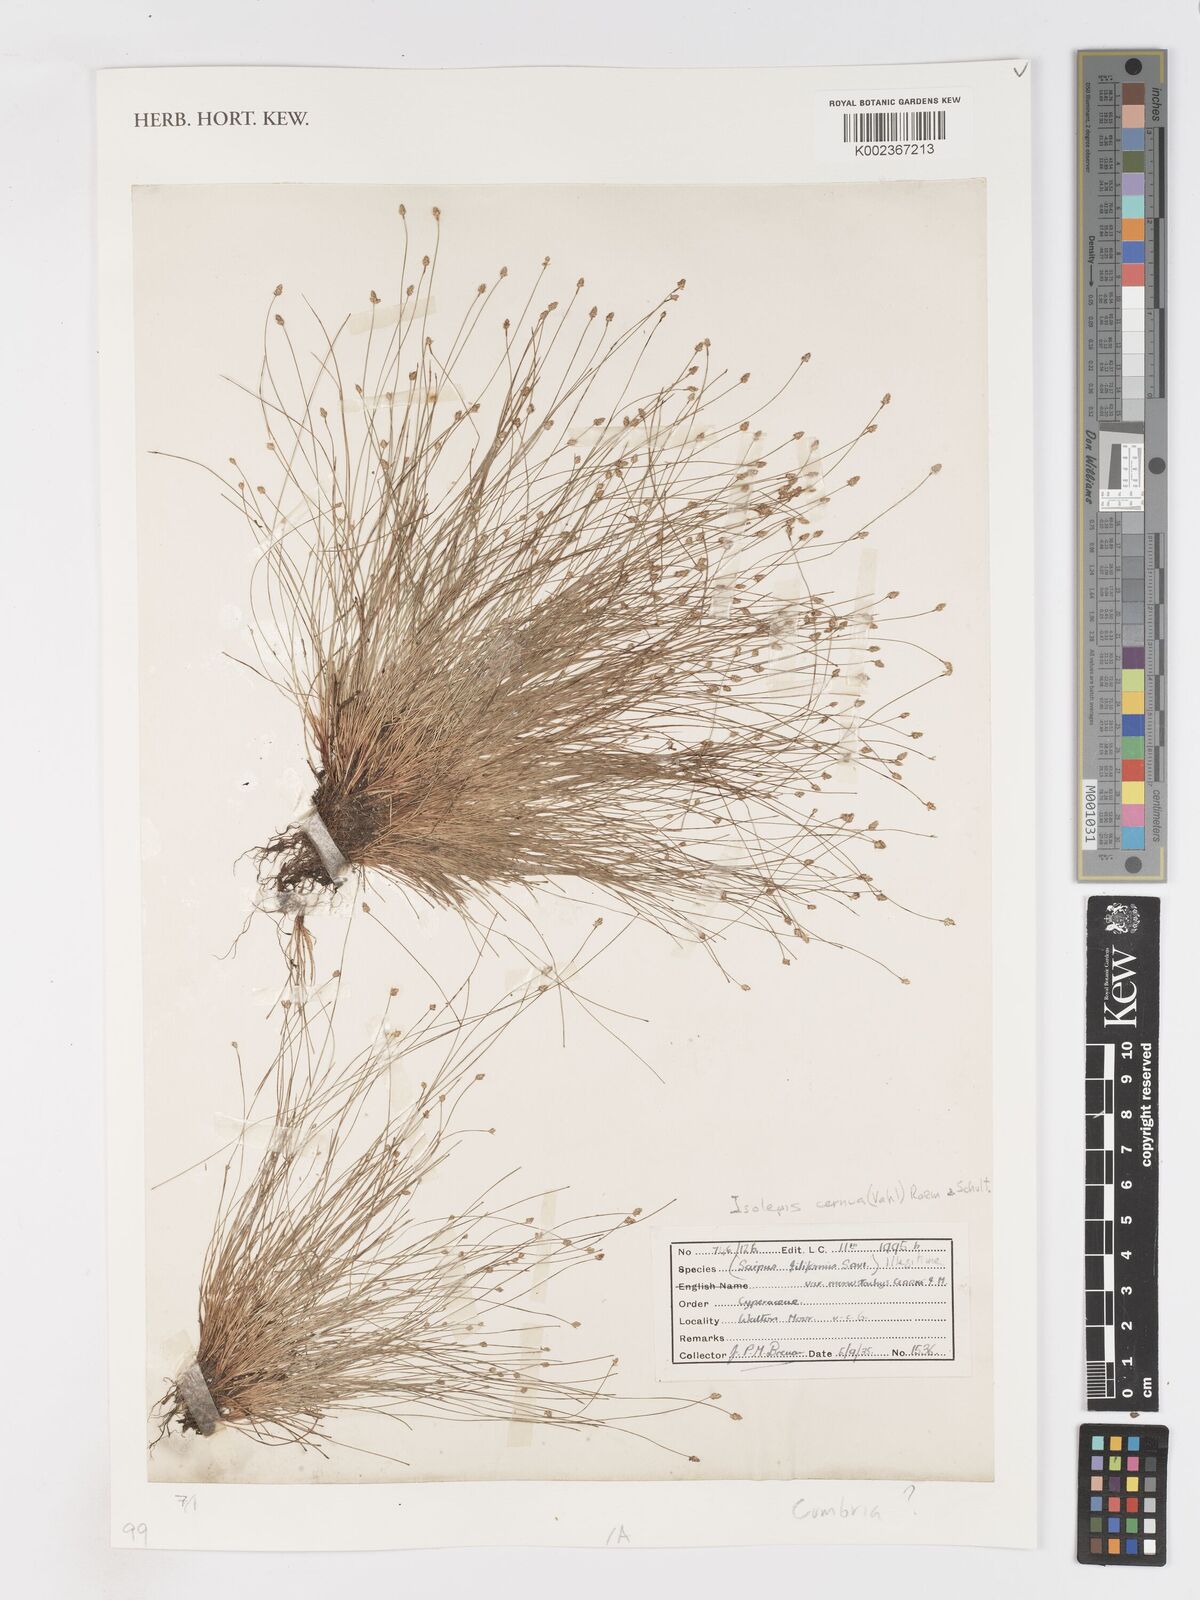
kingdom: Plantae
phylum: Tracheophyta
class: Liliopsida
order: Poales
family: Cyperaceae
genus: Isolepis
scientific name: Isolepis cernua
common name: Slender club-rush
